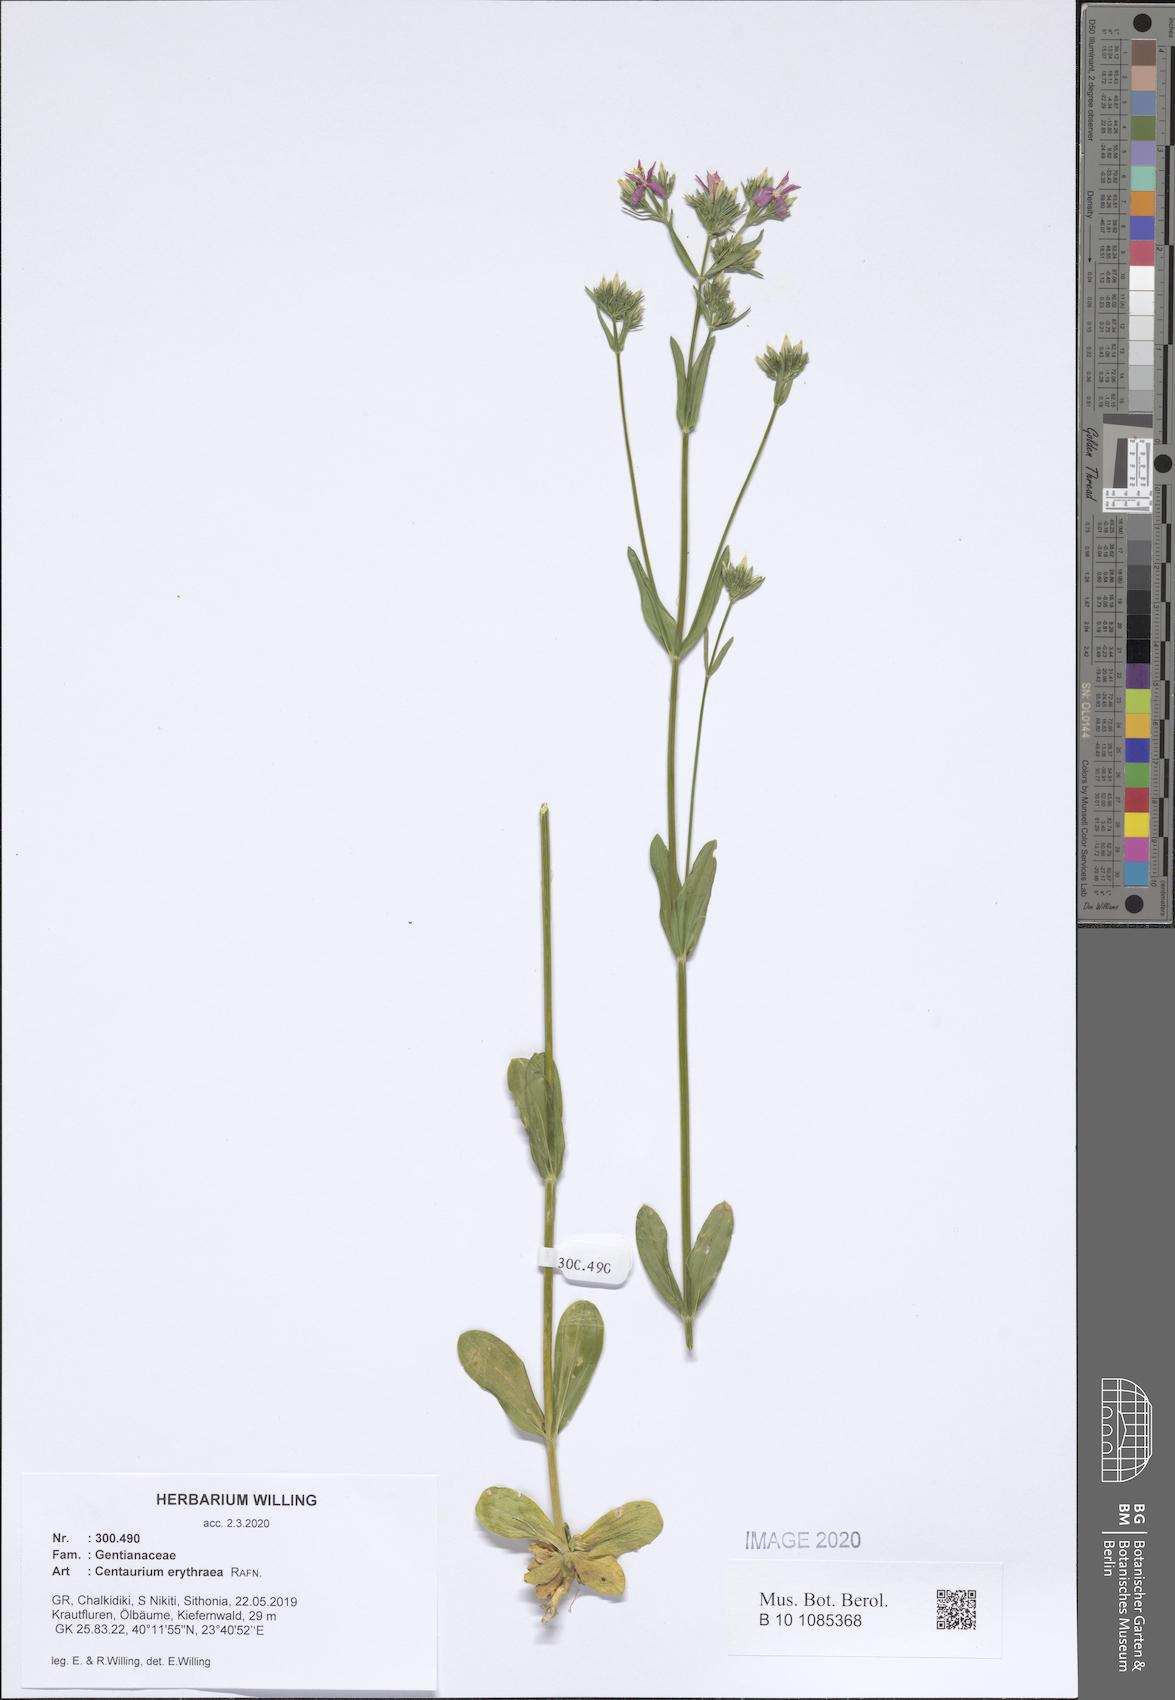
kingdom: Plantae
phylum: Tracheophyta
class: Magnoliopsida
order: Gentianales
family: Gentianaceae
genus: Centaurium
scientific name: Centaurium erythraea
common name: Common centaury
